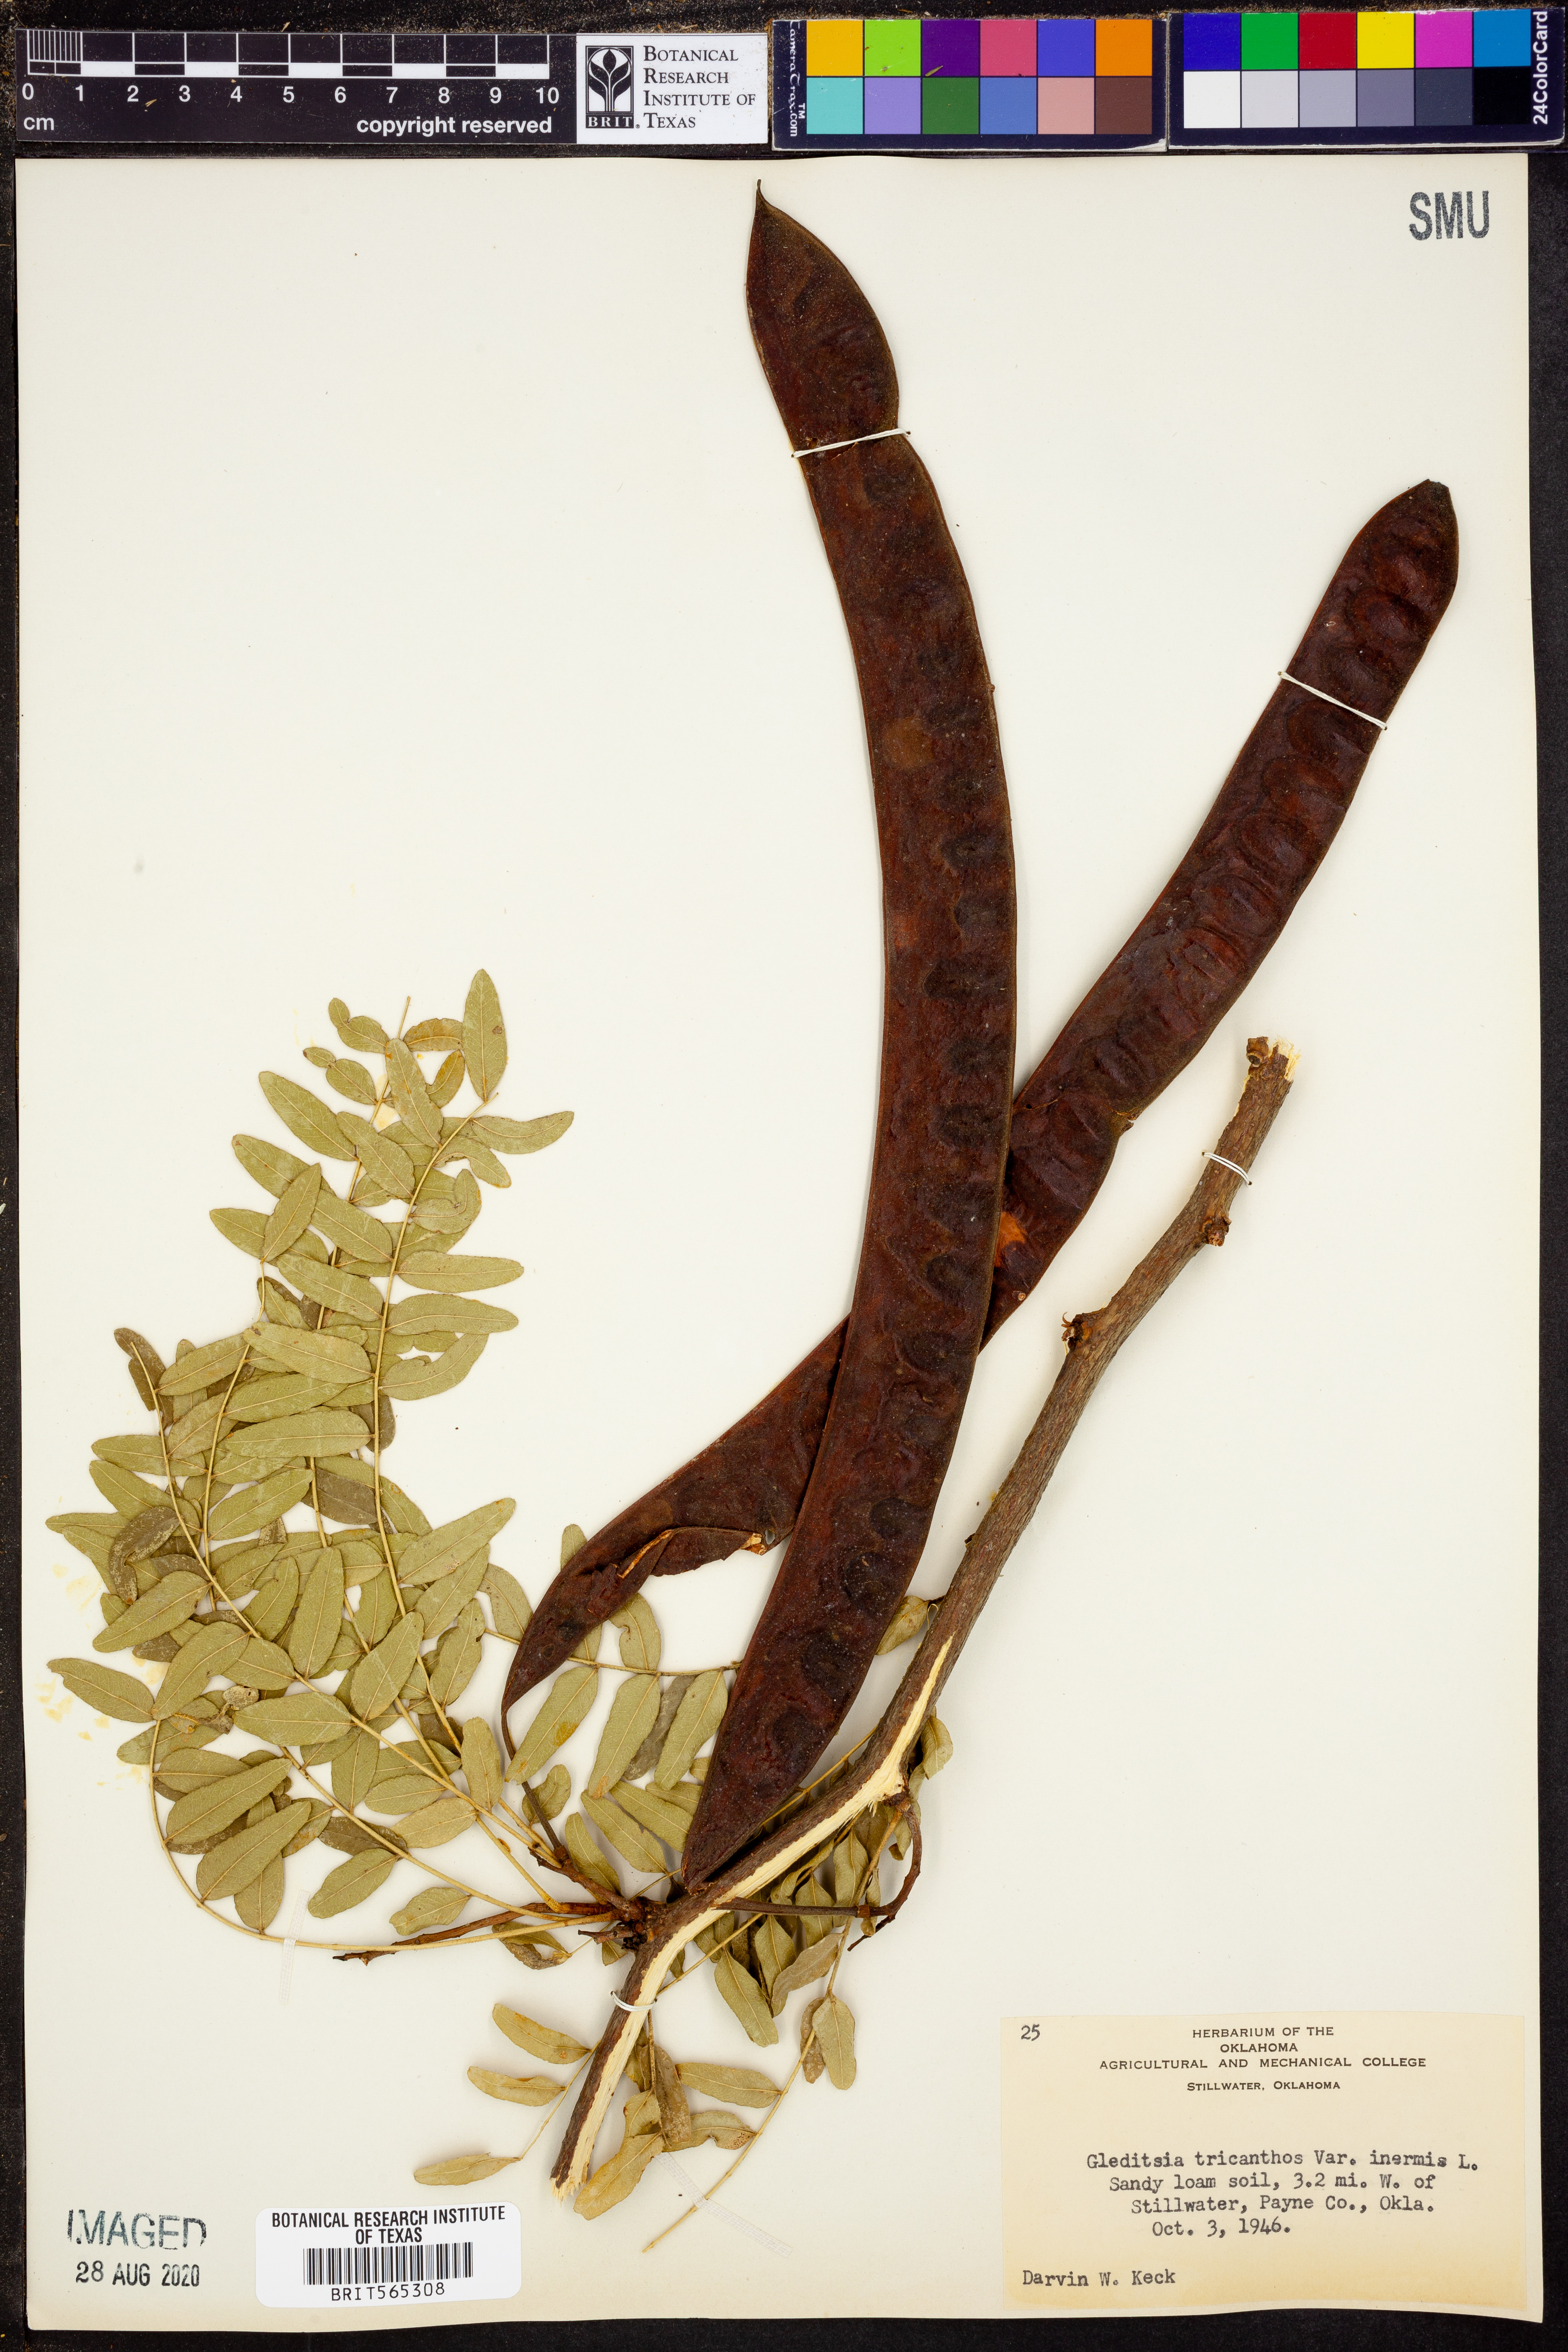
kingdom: Plantae
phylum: Tracheophyta
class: Magnoliopsida
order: Fabales
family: Fabaceae
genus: Gleditsia
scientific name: Gleditsia triacanthos
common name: Common honeylocust
